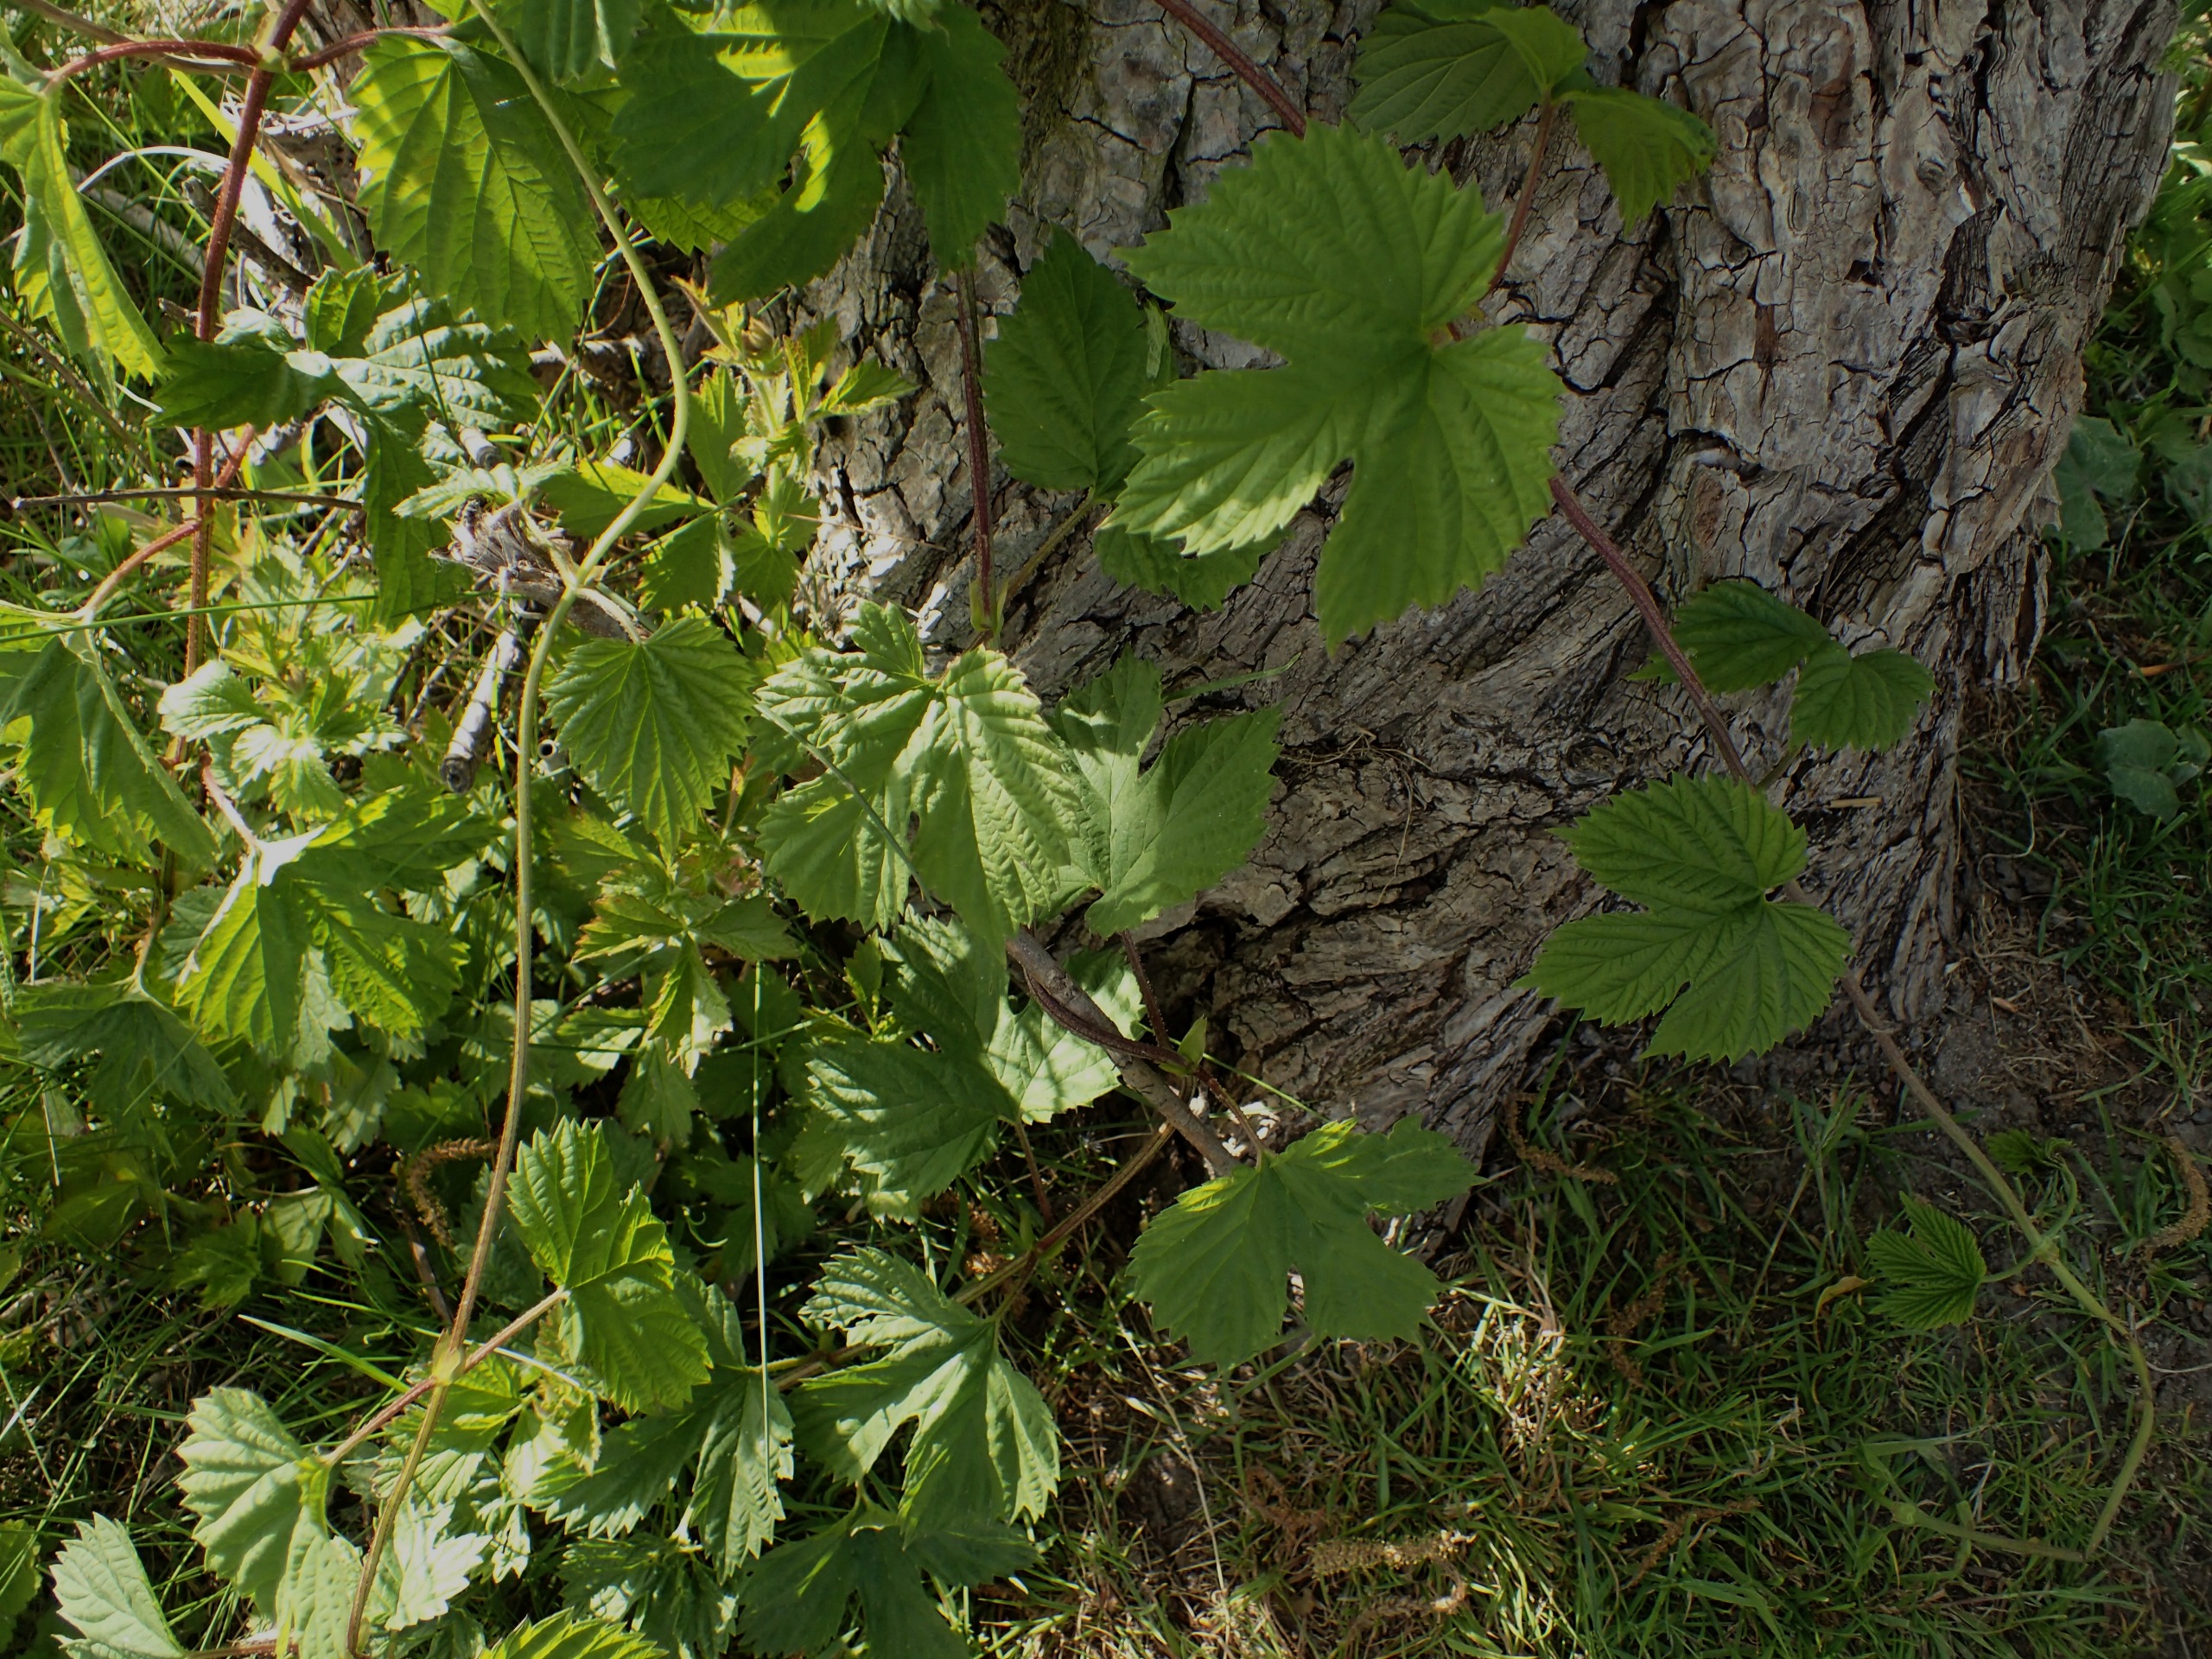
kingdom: Plantae
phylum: Tracheophyta
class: Magnoliopsida
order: Rosales
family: Cannabaceae
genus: Humulus
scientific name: Humulus lupulus
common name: Humle
